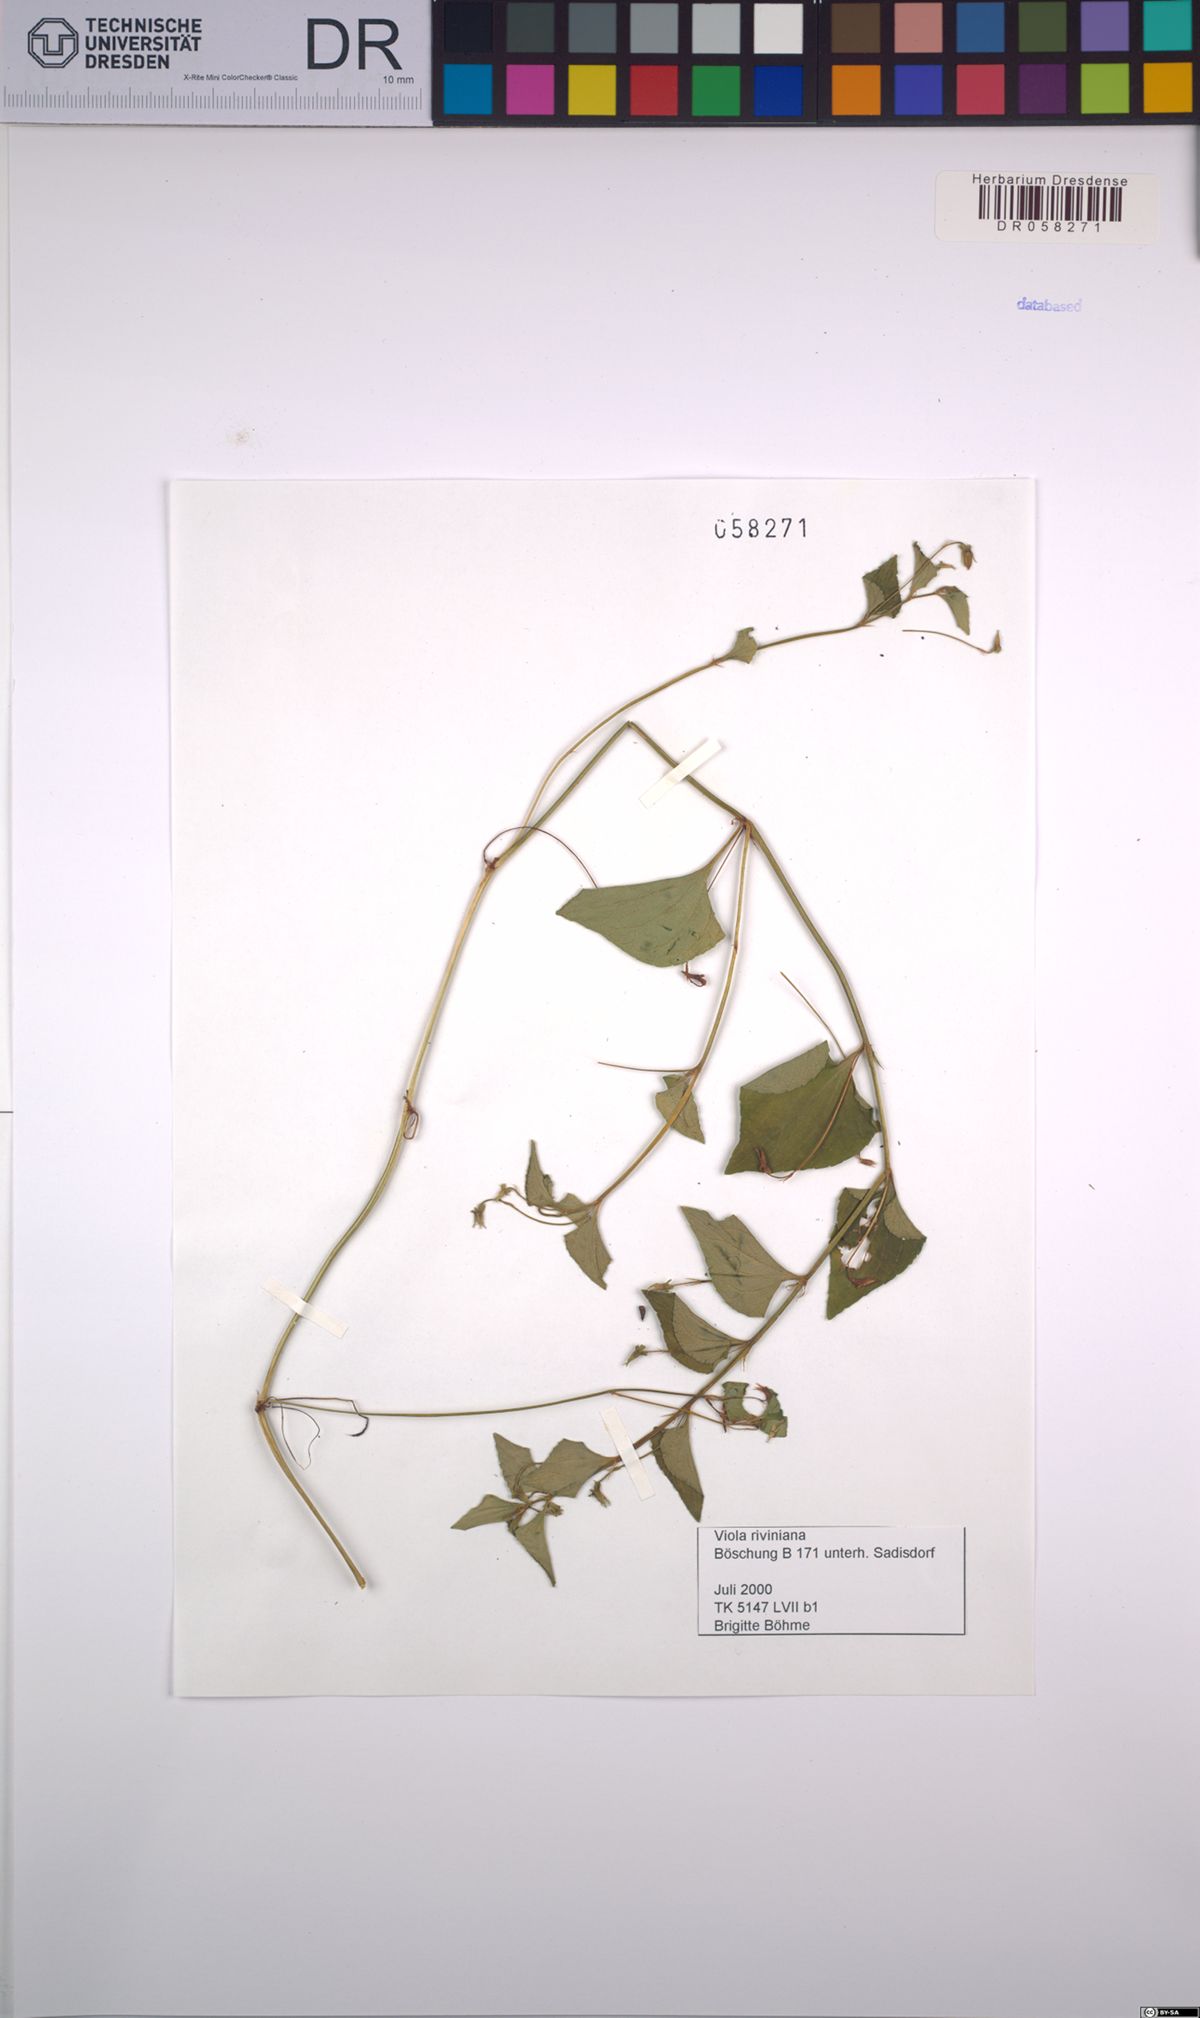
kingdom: Plantae
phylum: Tracheophyta
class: Magnoliopsida
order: Malpighiales
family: Violaceae
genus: Viola
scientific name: Viola riviniana
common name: Common dog-violet
